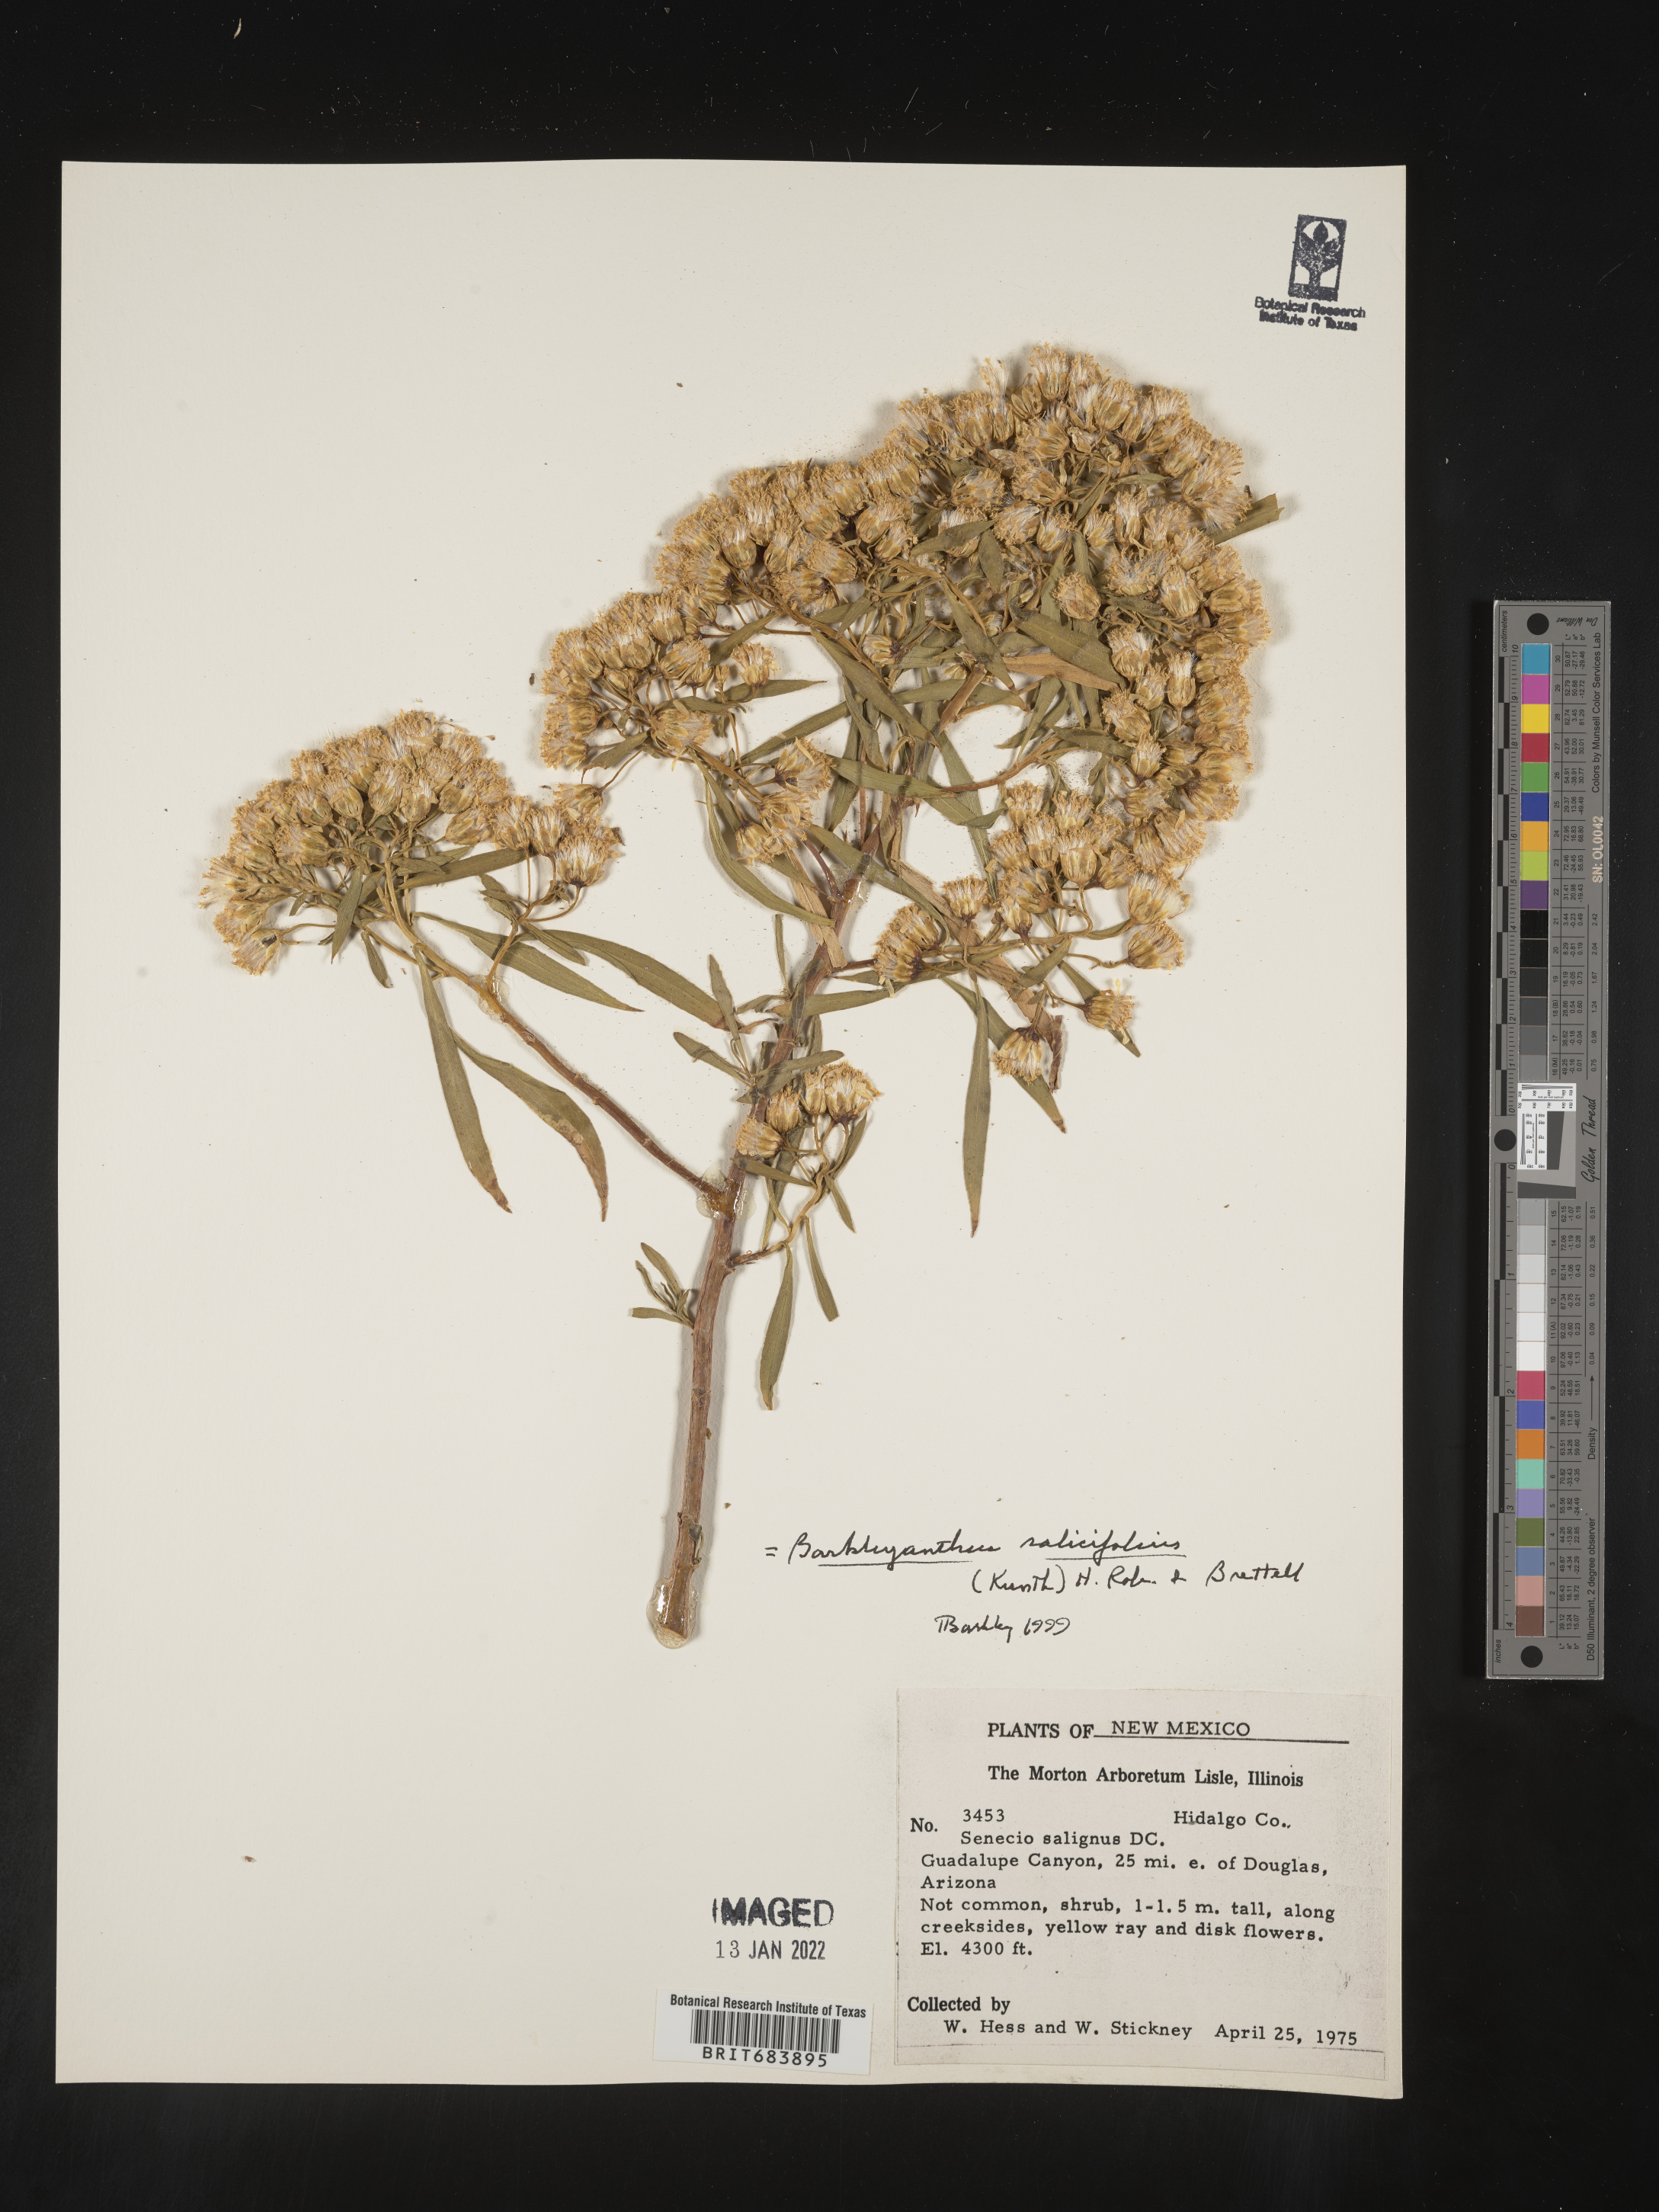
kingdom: Plantae
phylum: Tracheophyta
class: Magnoliopsida
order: Asterales
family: Asteraceae
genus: Barkleyanthus
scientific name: Barkleyanthus
